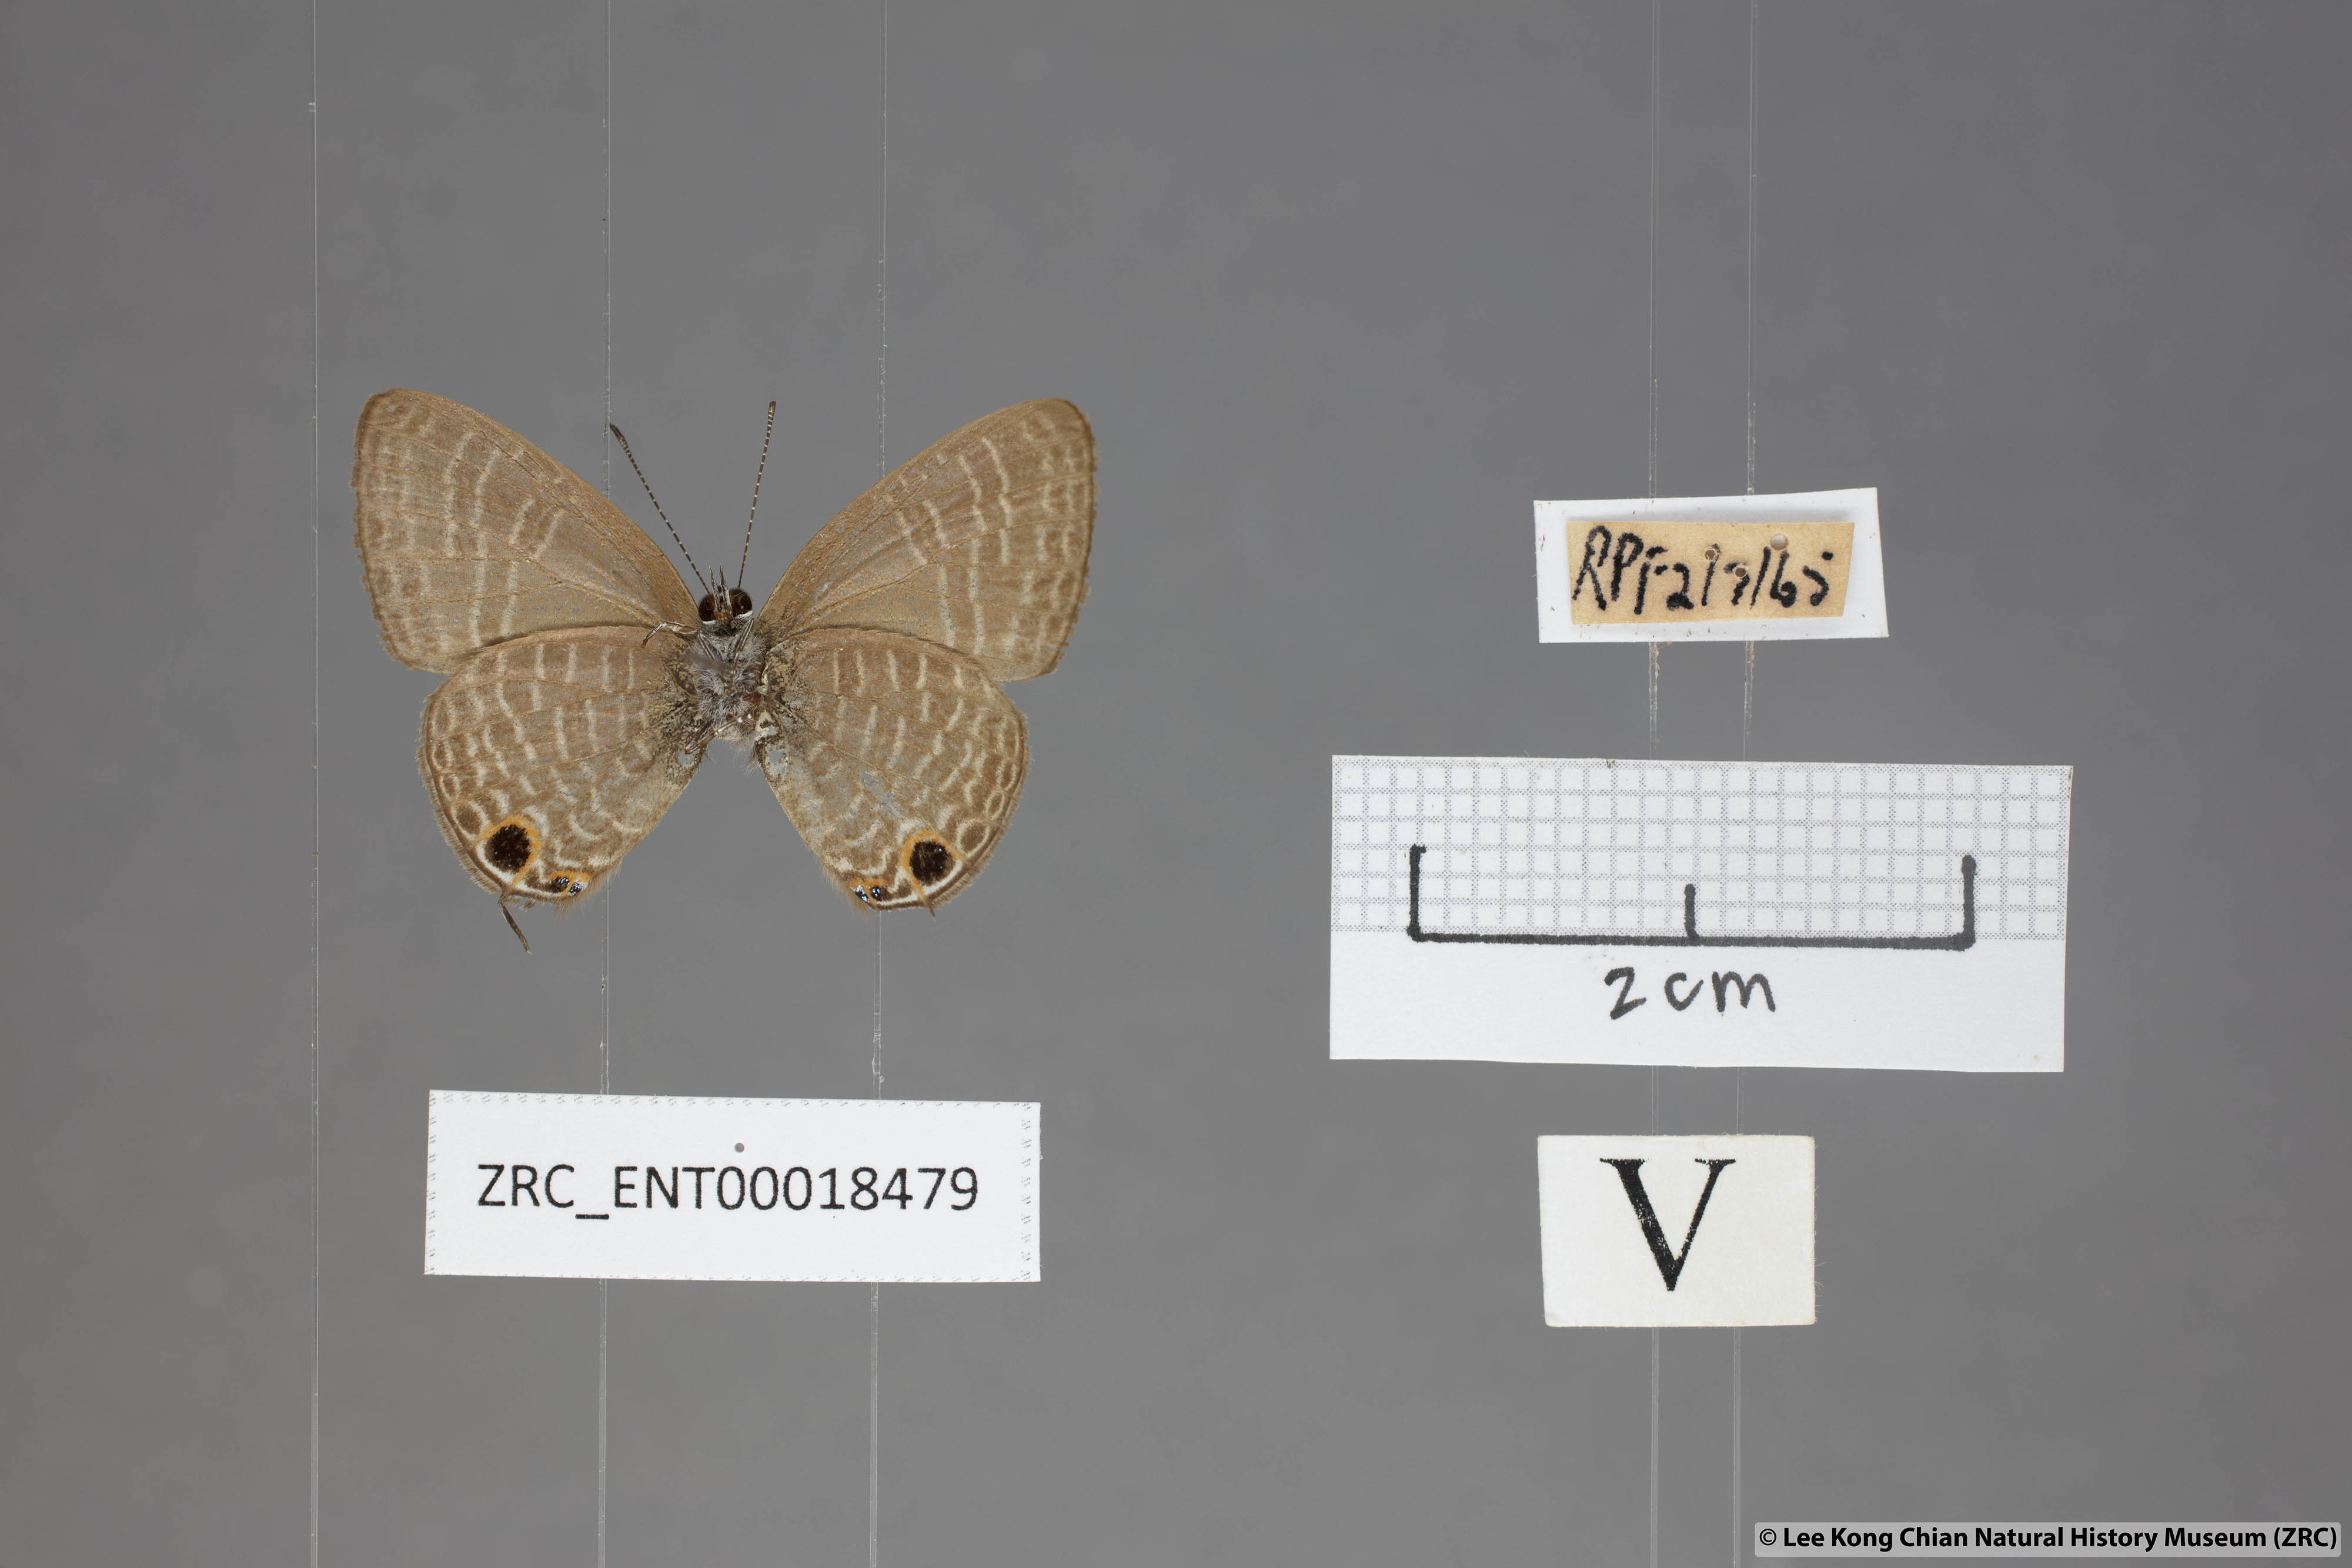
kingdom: Animalia
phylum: Arthropoda
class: Insecta
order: Lepidoptera
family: Lycaenidae
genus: Nacaduba
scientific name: Nacaduba subperusia
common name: Violet fourline blue
